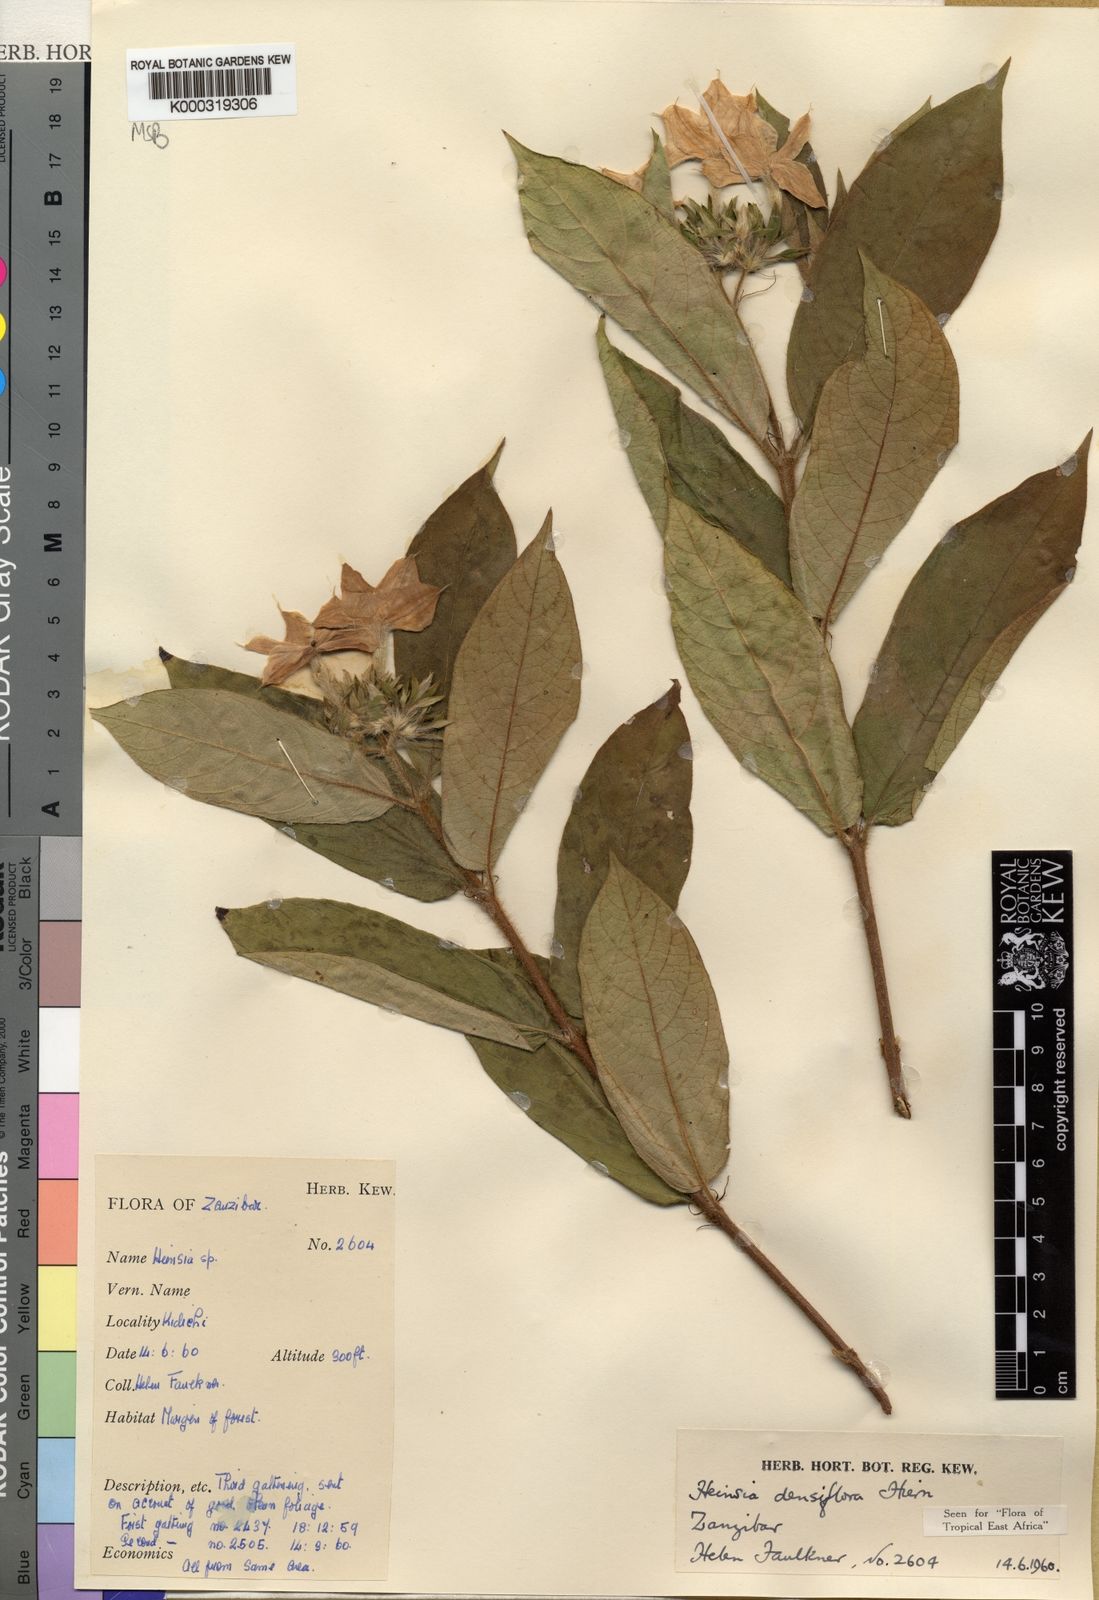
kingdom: Plantae
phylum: Tracheophyta
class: Magnoliopsida
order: Gentianales
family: Rubiaceae
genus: Heinsia
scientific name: Heinsia zanzibarica
